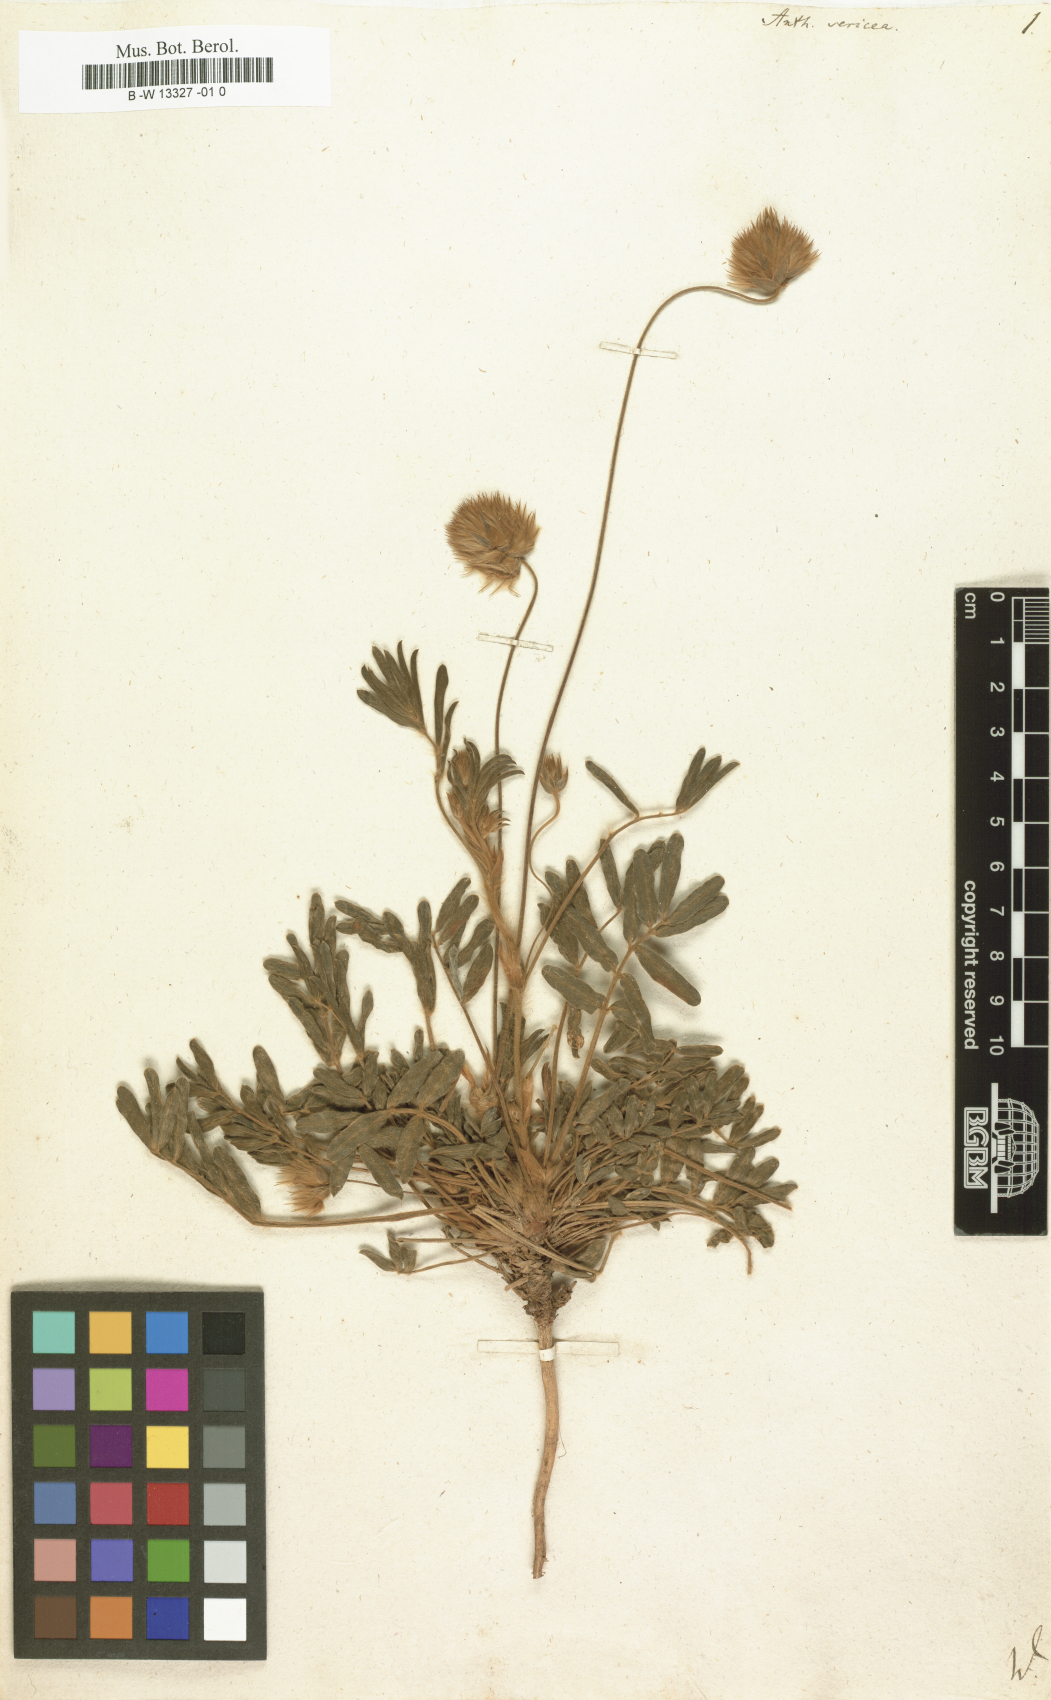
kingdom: Plantae
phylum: Tracheophyta
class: Magnoliopsida
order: Fabales
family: Fabaceae
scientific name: Fabaceae
